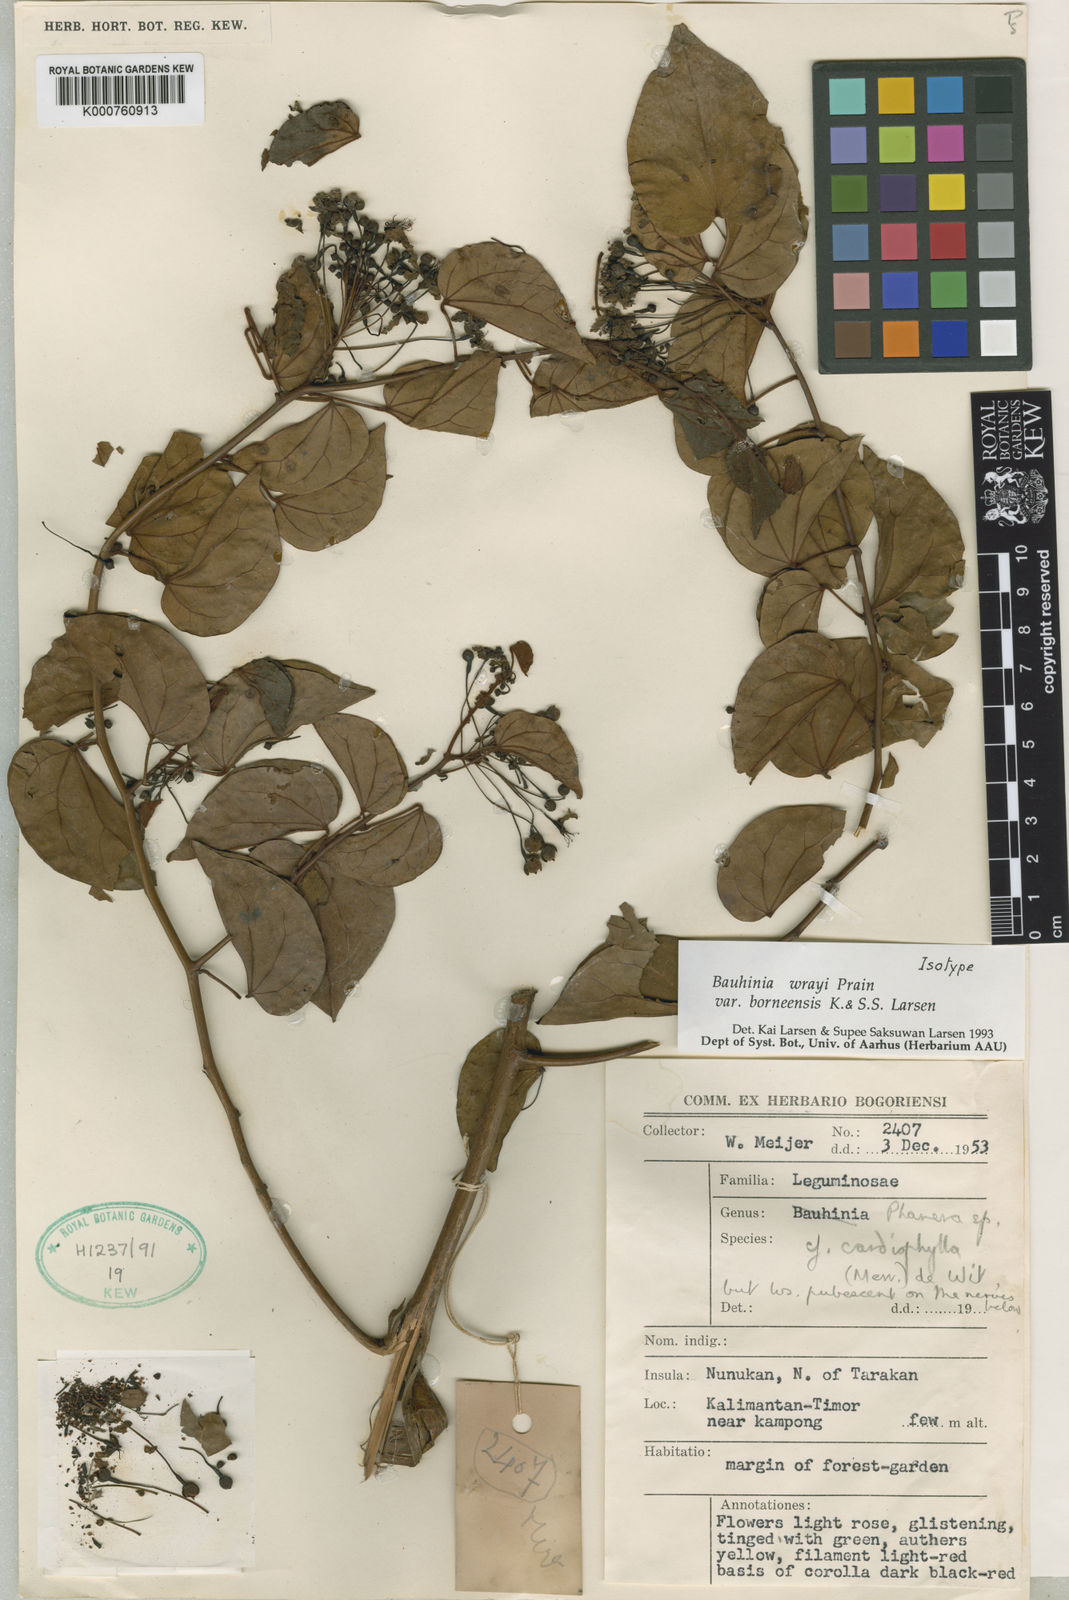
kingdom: Plantae
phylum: Tracheophyta
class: Magnoliopsida
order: Fabales
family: Fabaceae
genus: Phanera
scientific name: Phanera wrayi
